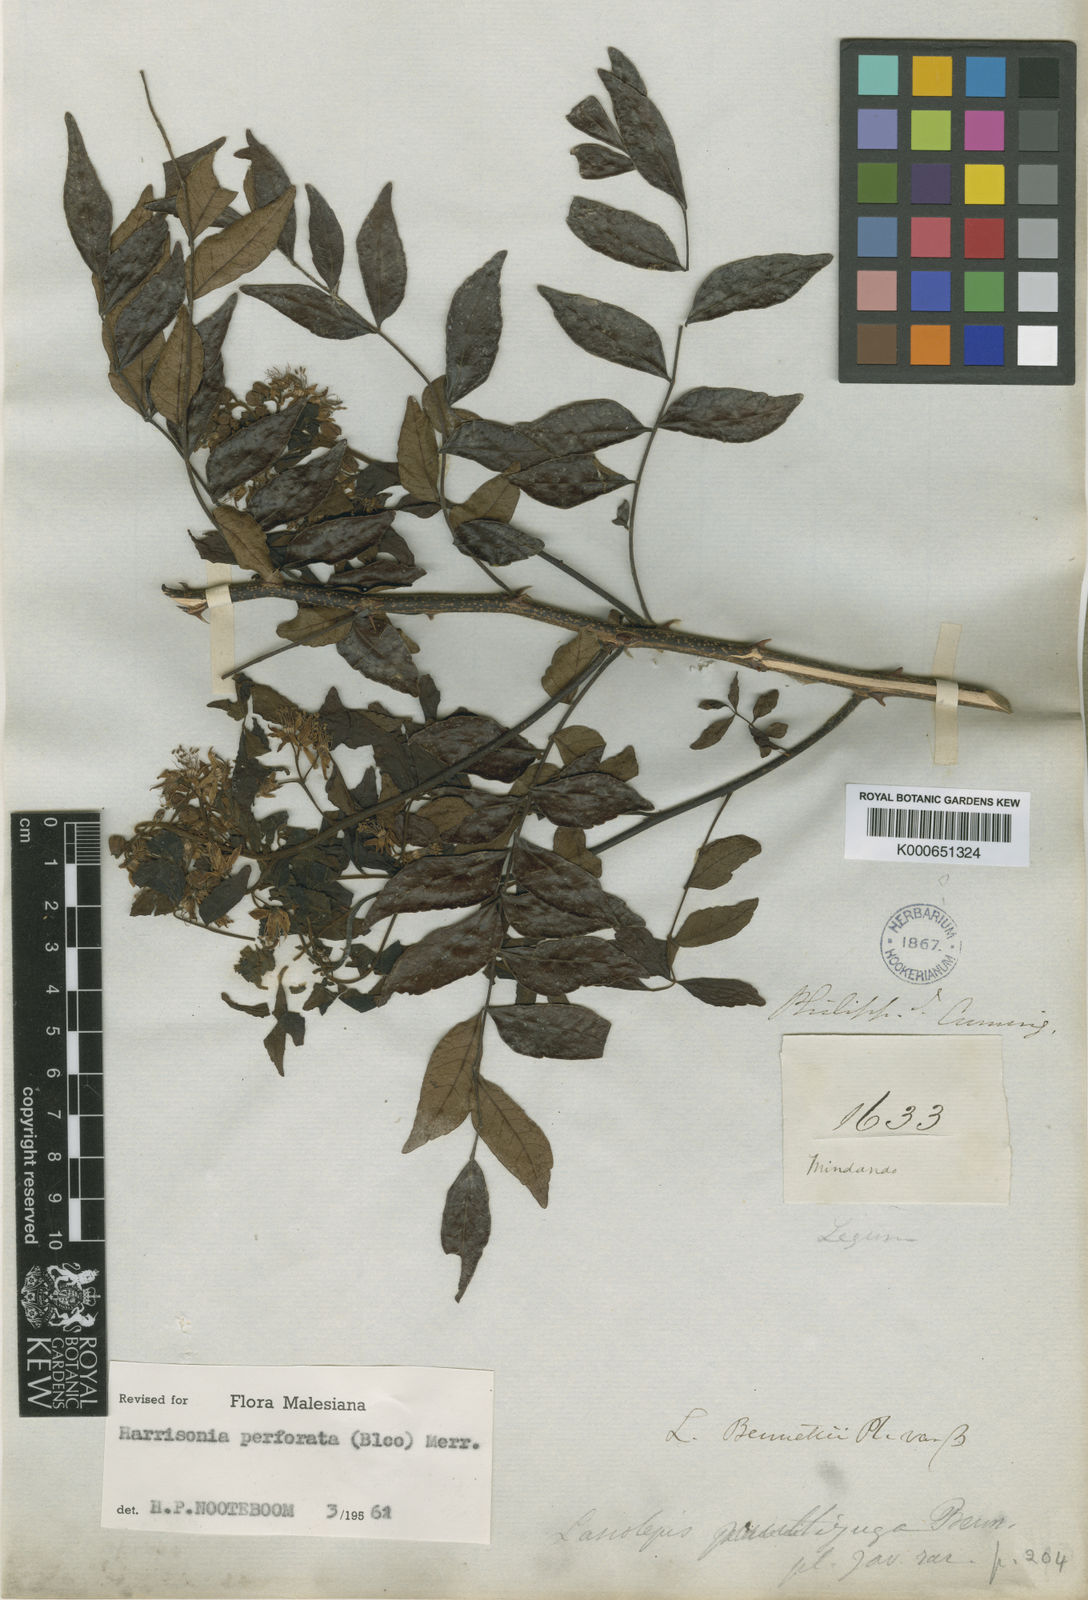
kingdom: Plantae
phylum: Tracheophyta
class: Magnoliopsida
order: Sapindales
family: Rutaceae
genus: Harrisonia
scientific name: Harrisonia perforata
